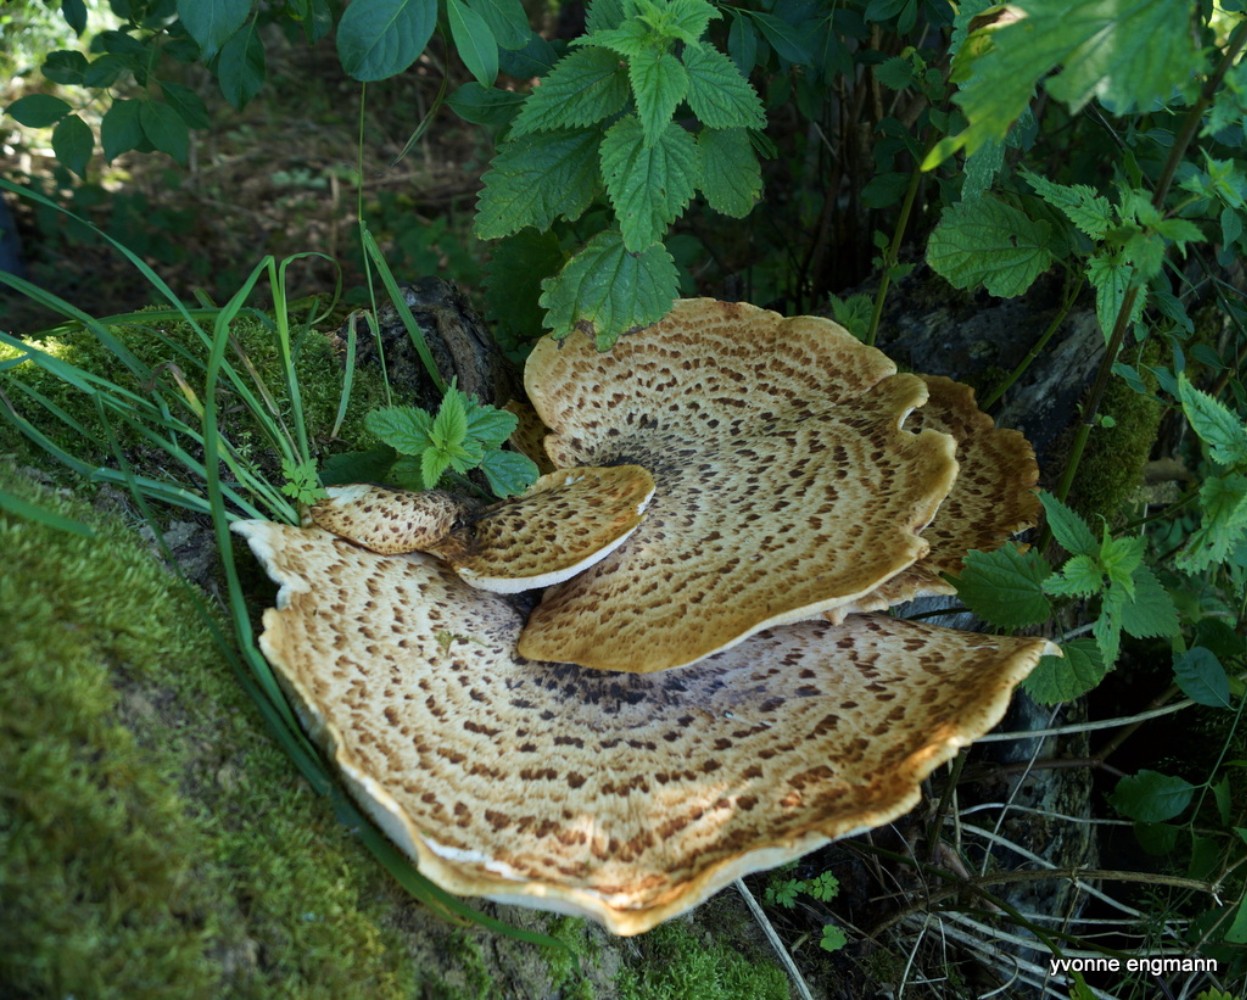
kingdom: Fungi
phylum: Basidiomycota
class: Agaricomycetes
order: Polyporales
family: Polyporaceae
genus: Cerioporus
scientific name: Cerioporus squamosus
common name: skællet stilkporesvamp
